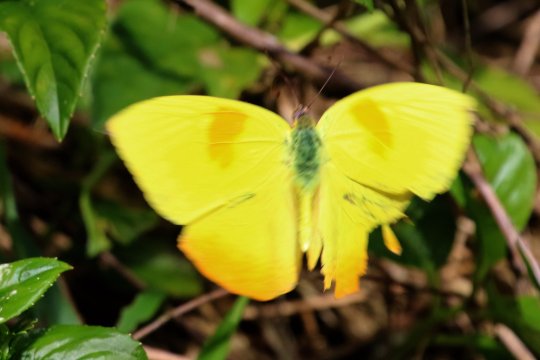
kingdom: Animalia
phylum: Arthropoda
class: Insecta
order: Lepidoptera
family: Pieridae
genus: Phoebis
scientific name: Phoebis philea
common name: Orange-barred Sulphur
